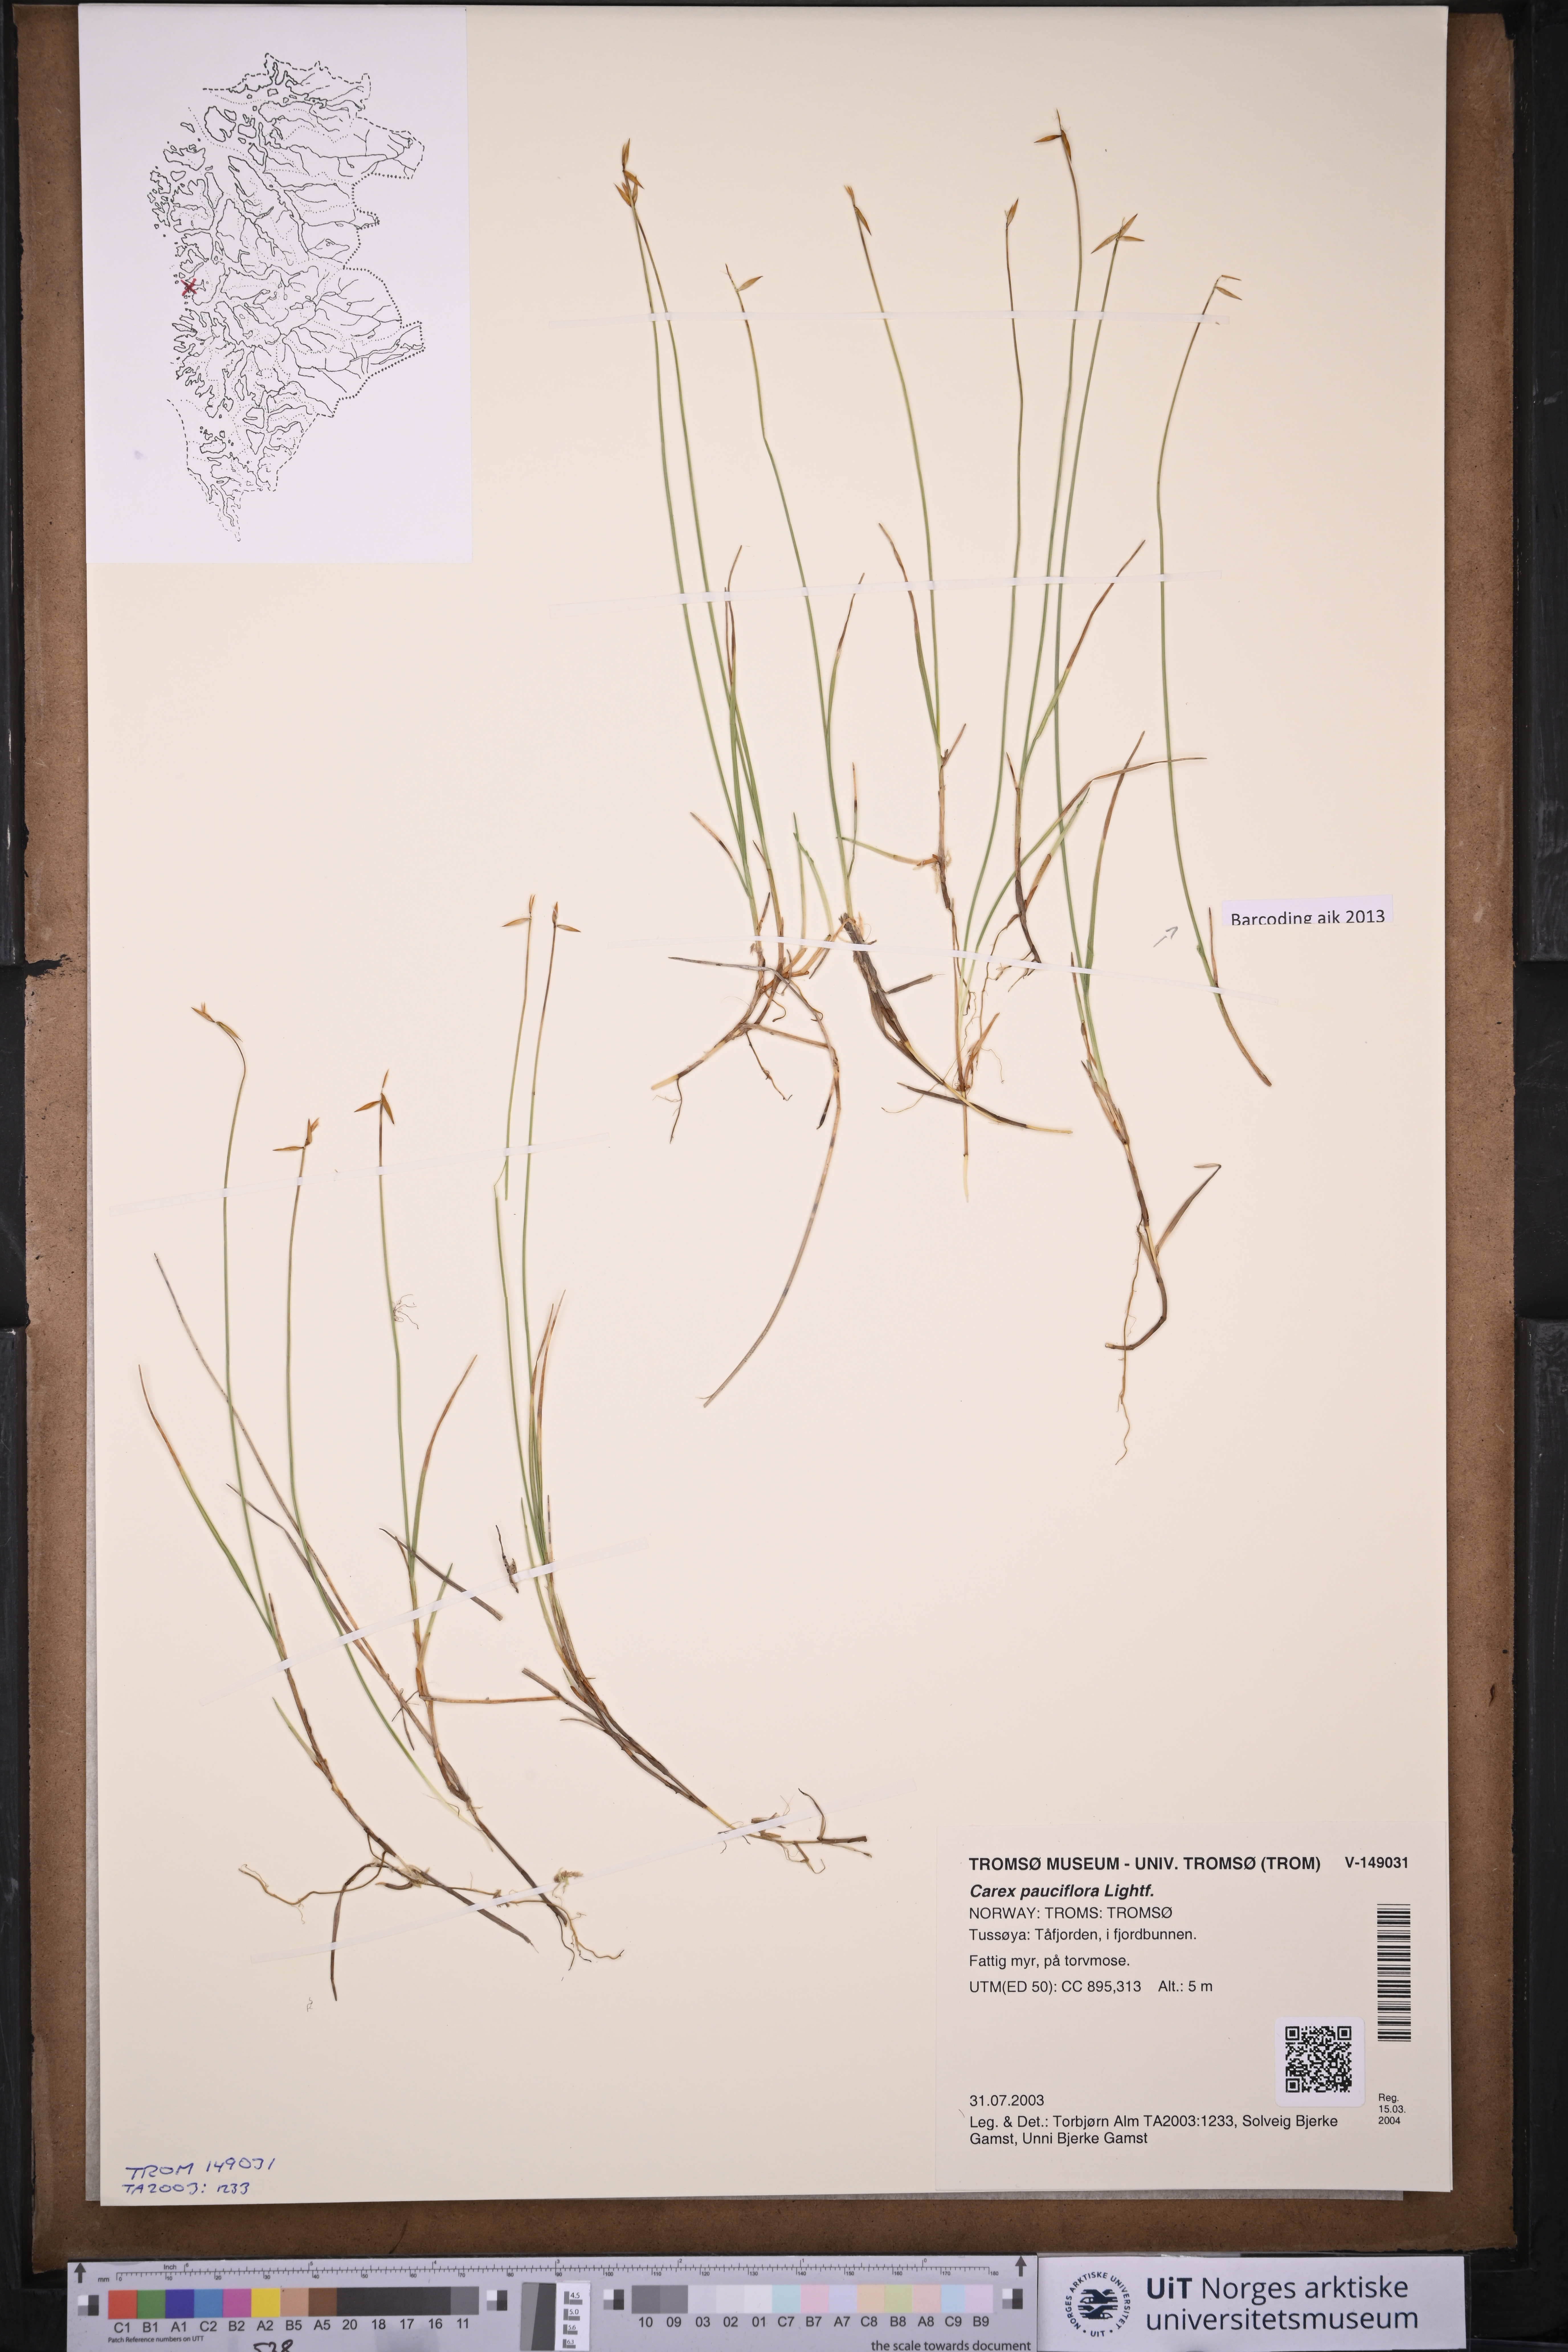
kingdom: Plantae
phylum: Tracheophyta
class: Liliopsida
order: Poales
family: Cyperaceae
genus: Carex
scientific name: Carex pauciflora
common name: Few-flowered sedge
